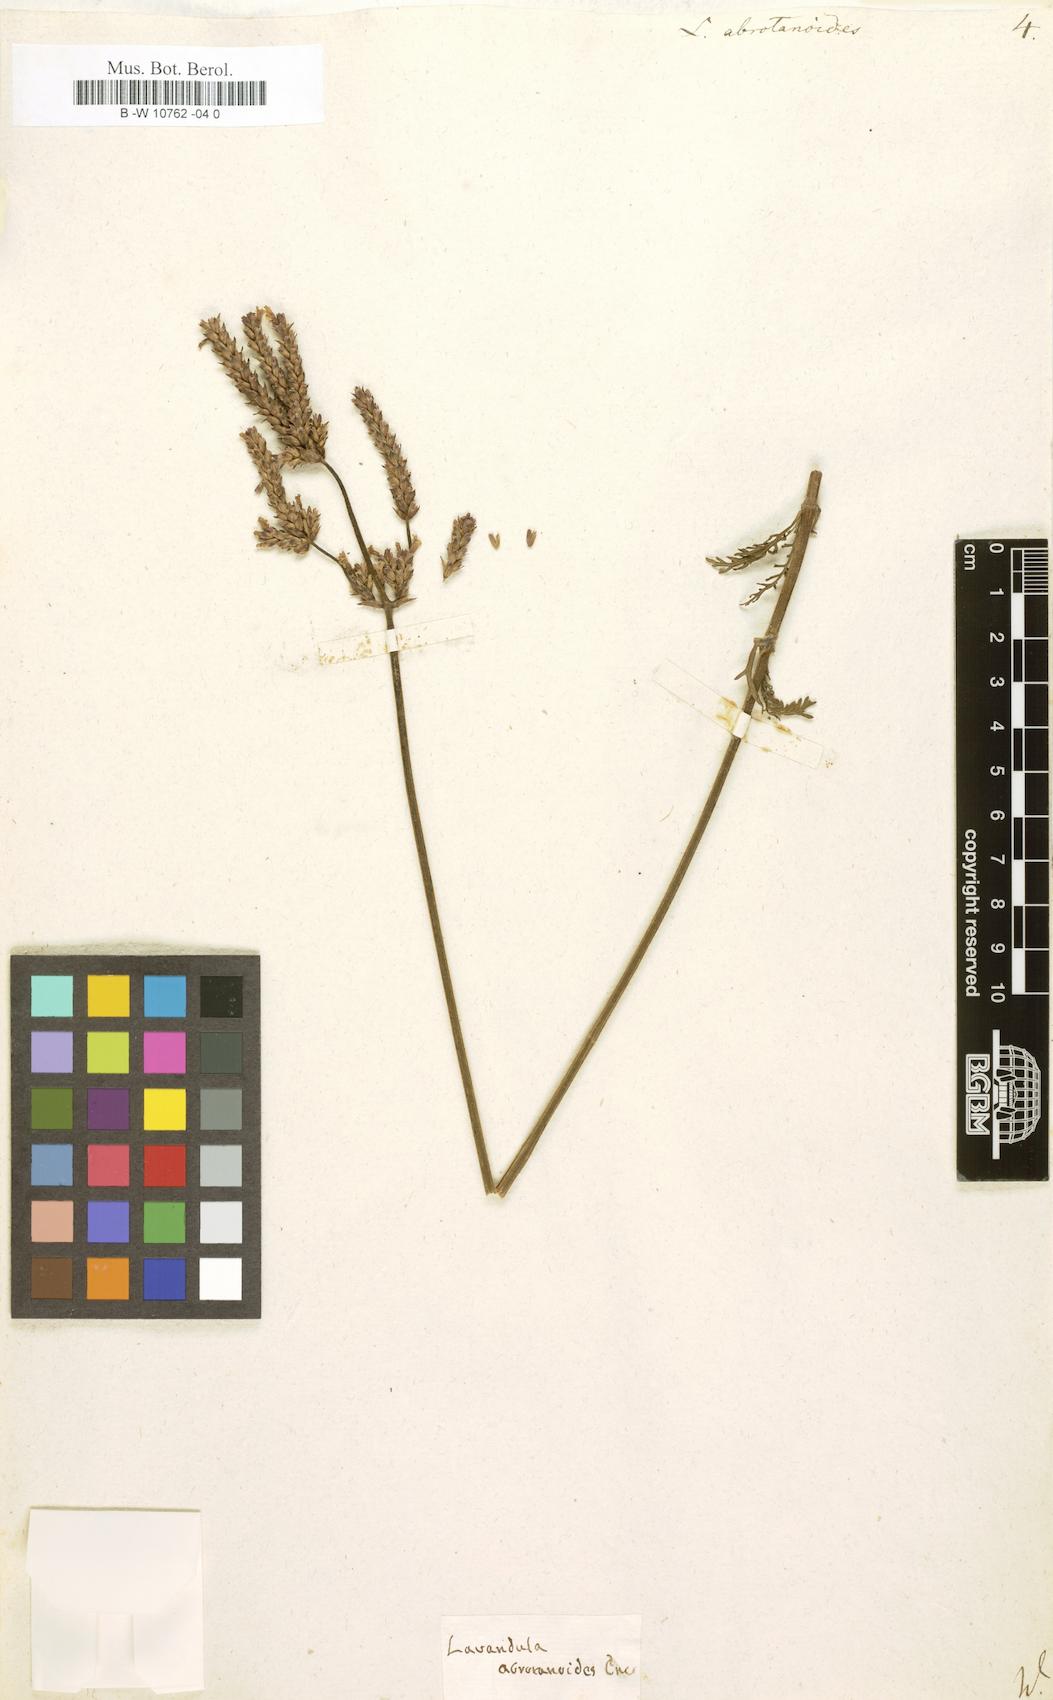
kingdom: Plantae
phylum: Tracheophyta
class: Magnoliopsida
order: Lamiales
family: Lamiaceae
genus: Lavandula
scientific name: Lavandula canariensis
